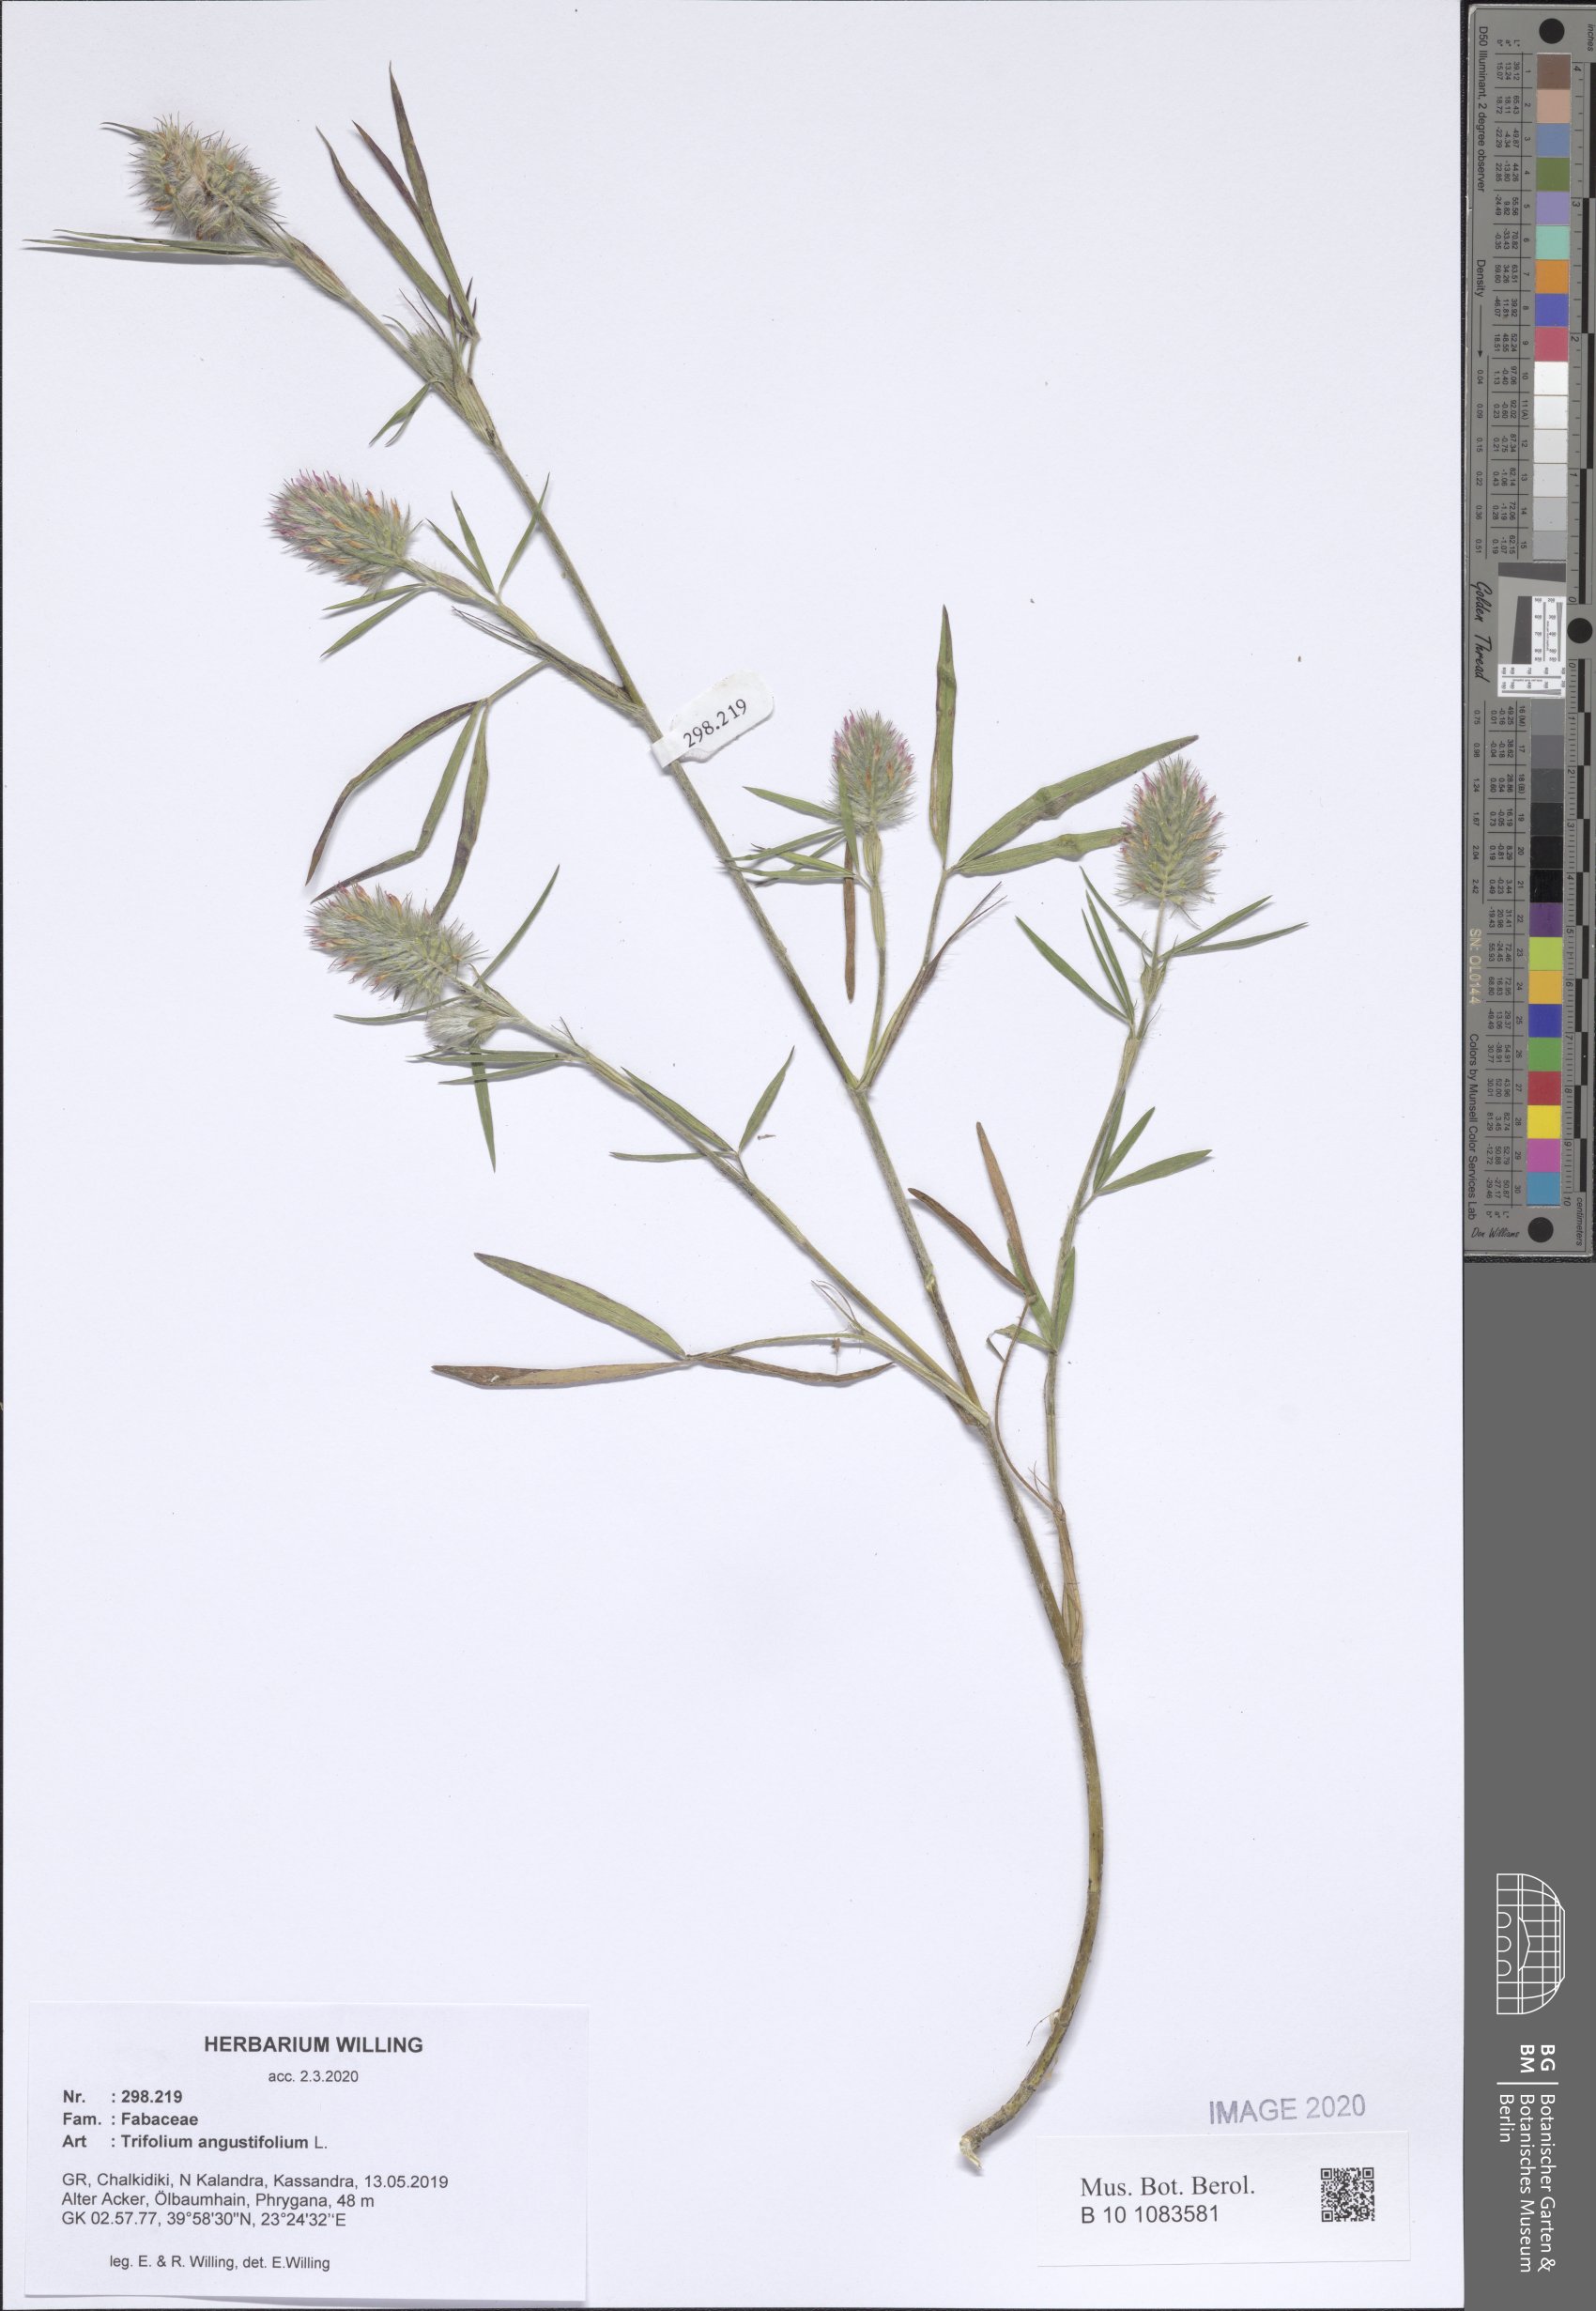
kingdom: Plantae
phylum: Tracheophyta
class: Magnoliopsida
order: Fabales
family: Fabaceae
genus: Trifolium
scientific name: Trifolium angustifolium
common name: Narrow clover
